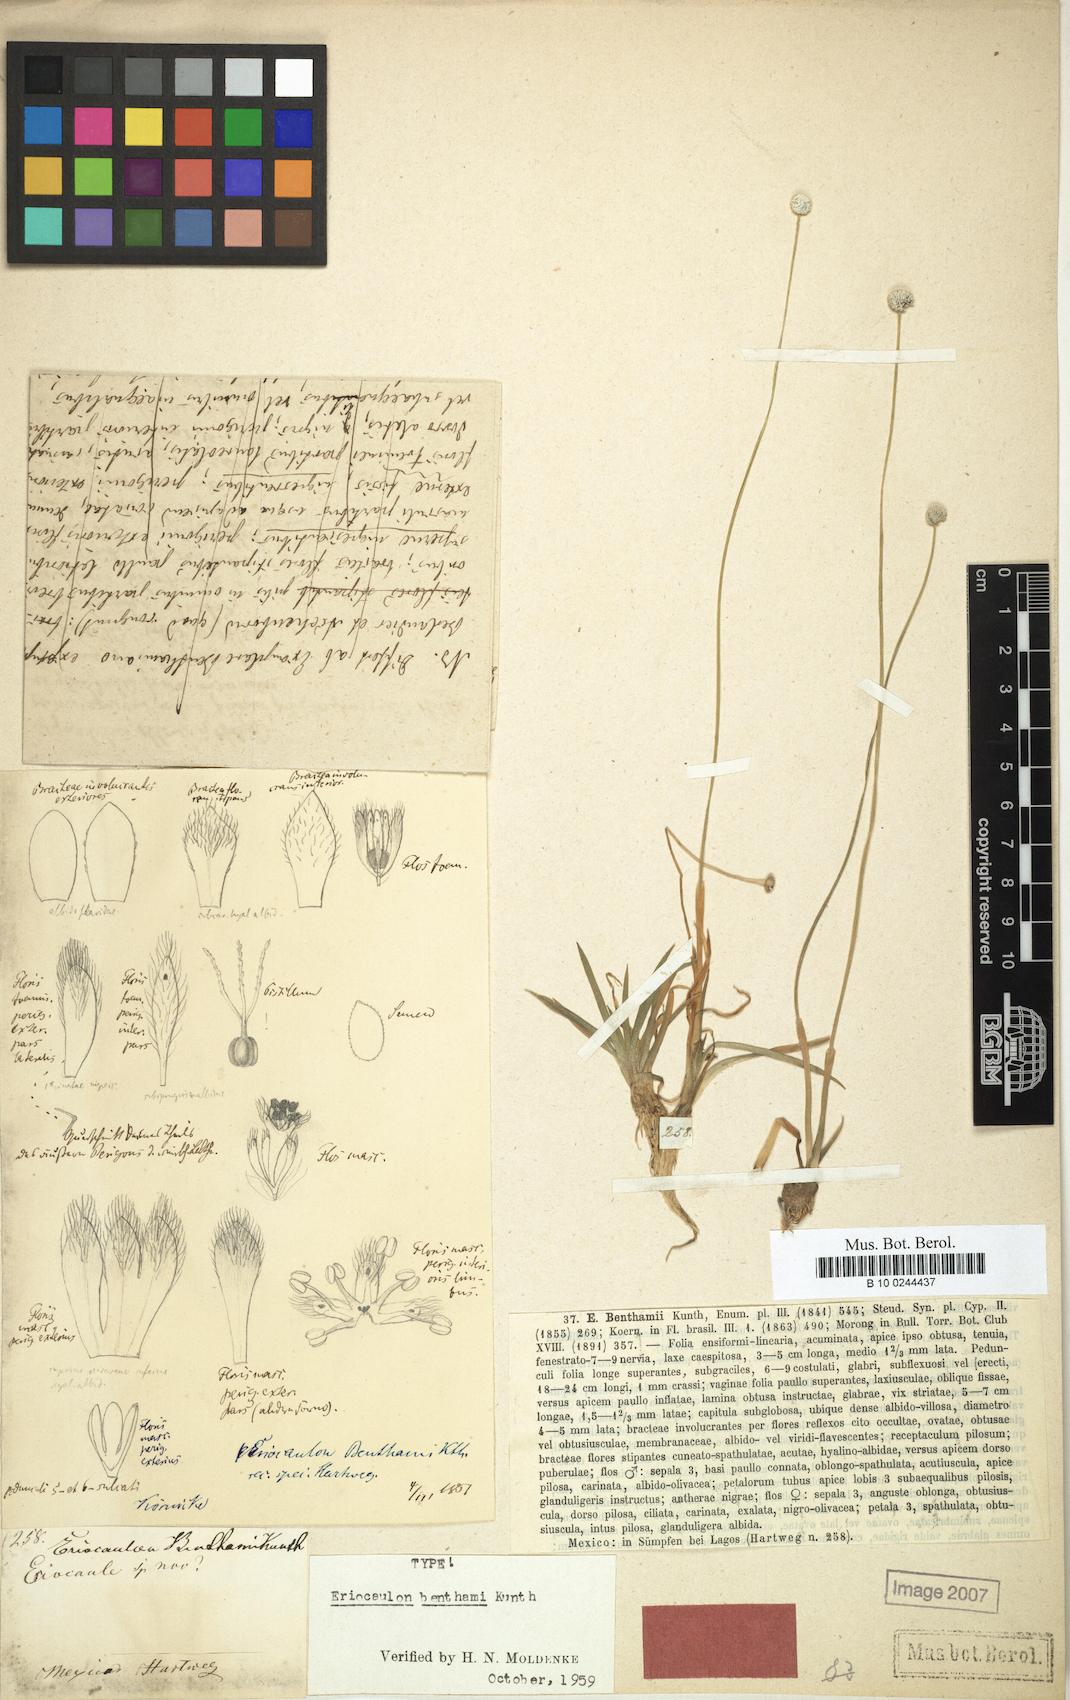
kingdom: Plantae
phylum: Tracheophyta
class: Liliopsida
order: Poales
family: Eriocaulaceae
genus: Eriocaulon
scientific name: Eriocaulon benthamii
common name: Bentham's pipewort
